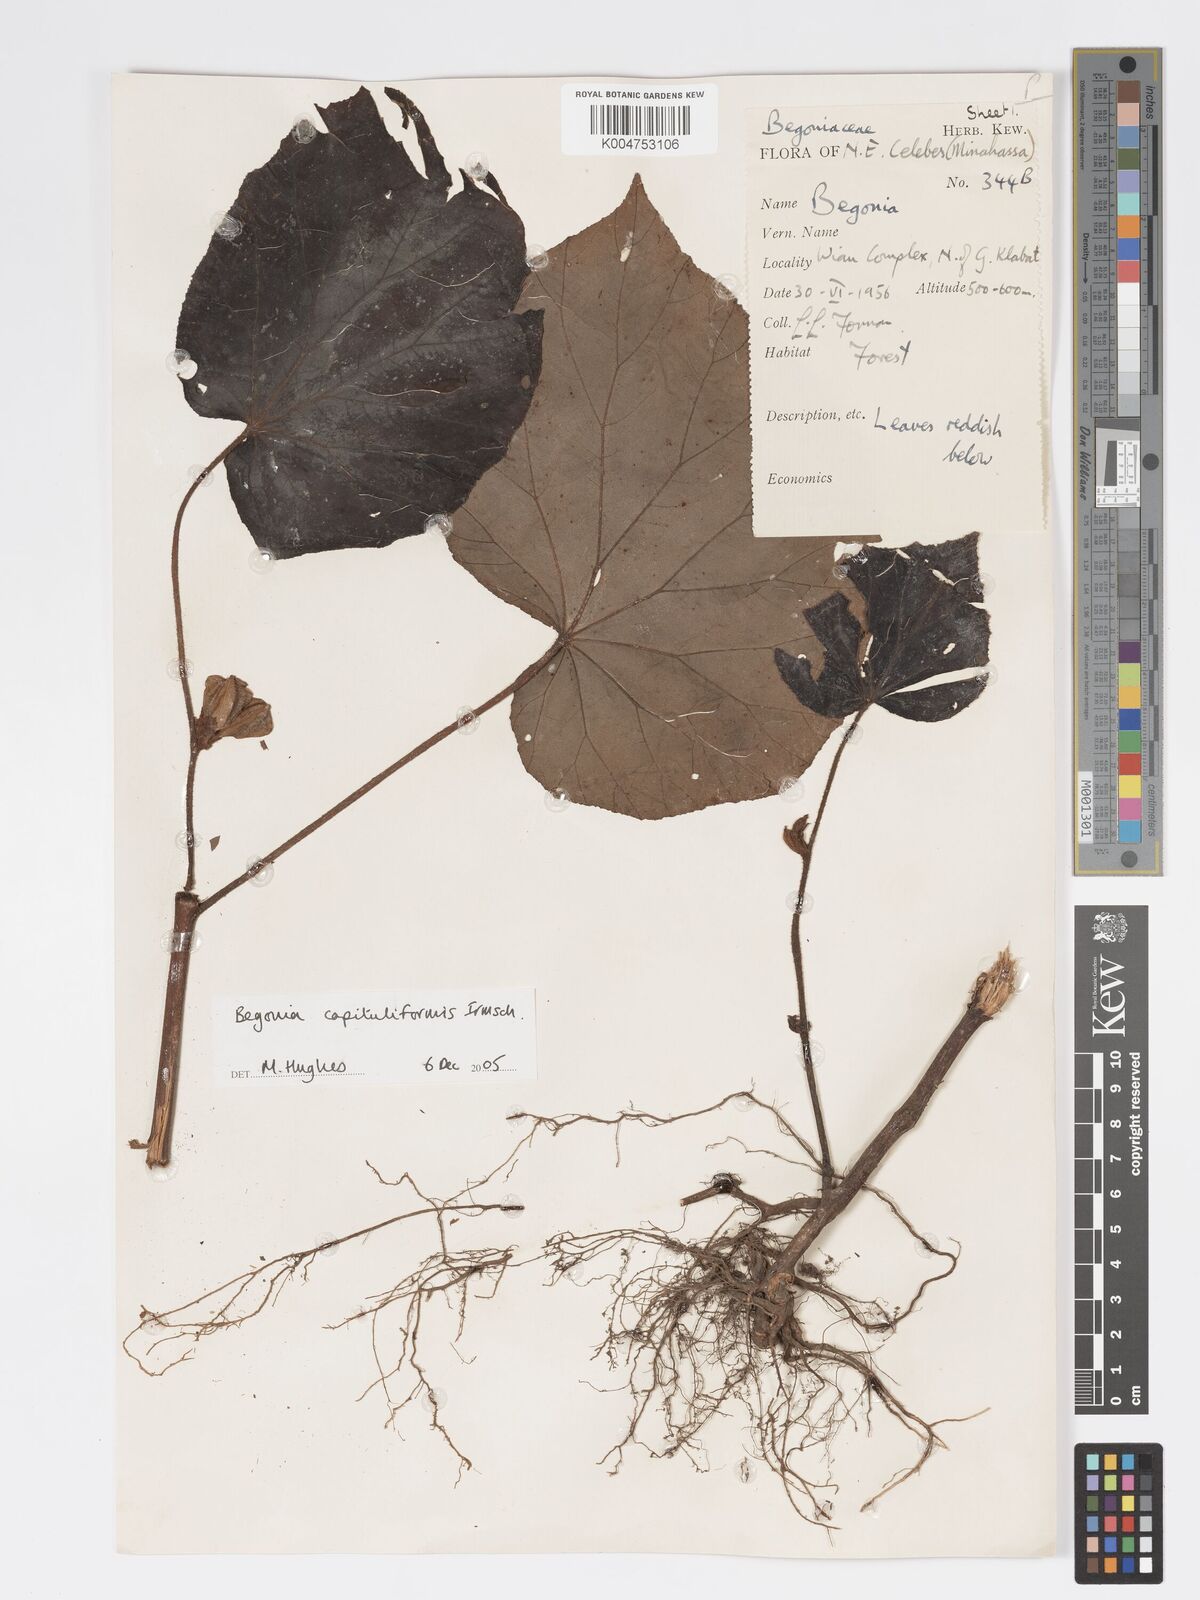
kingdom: Plantae
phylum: Tracheophyta
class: Magnoliopsida
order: Cucurbitales
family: Begoniaceae
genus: Begonia
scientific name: Begonia capituliformis
